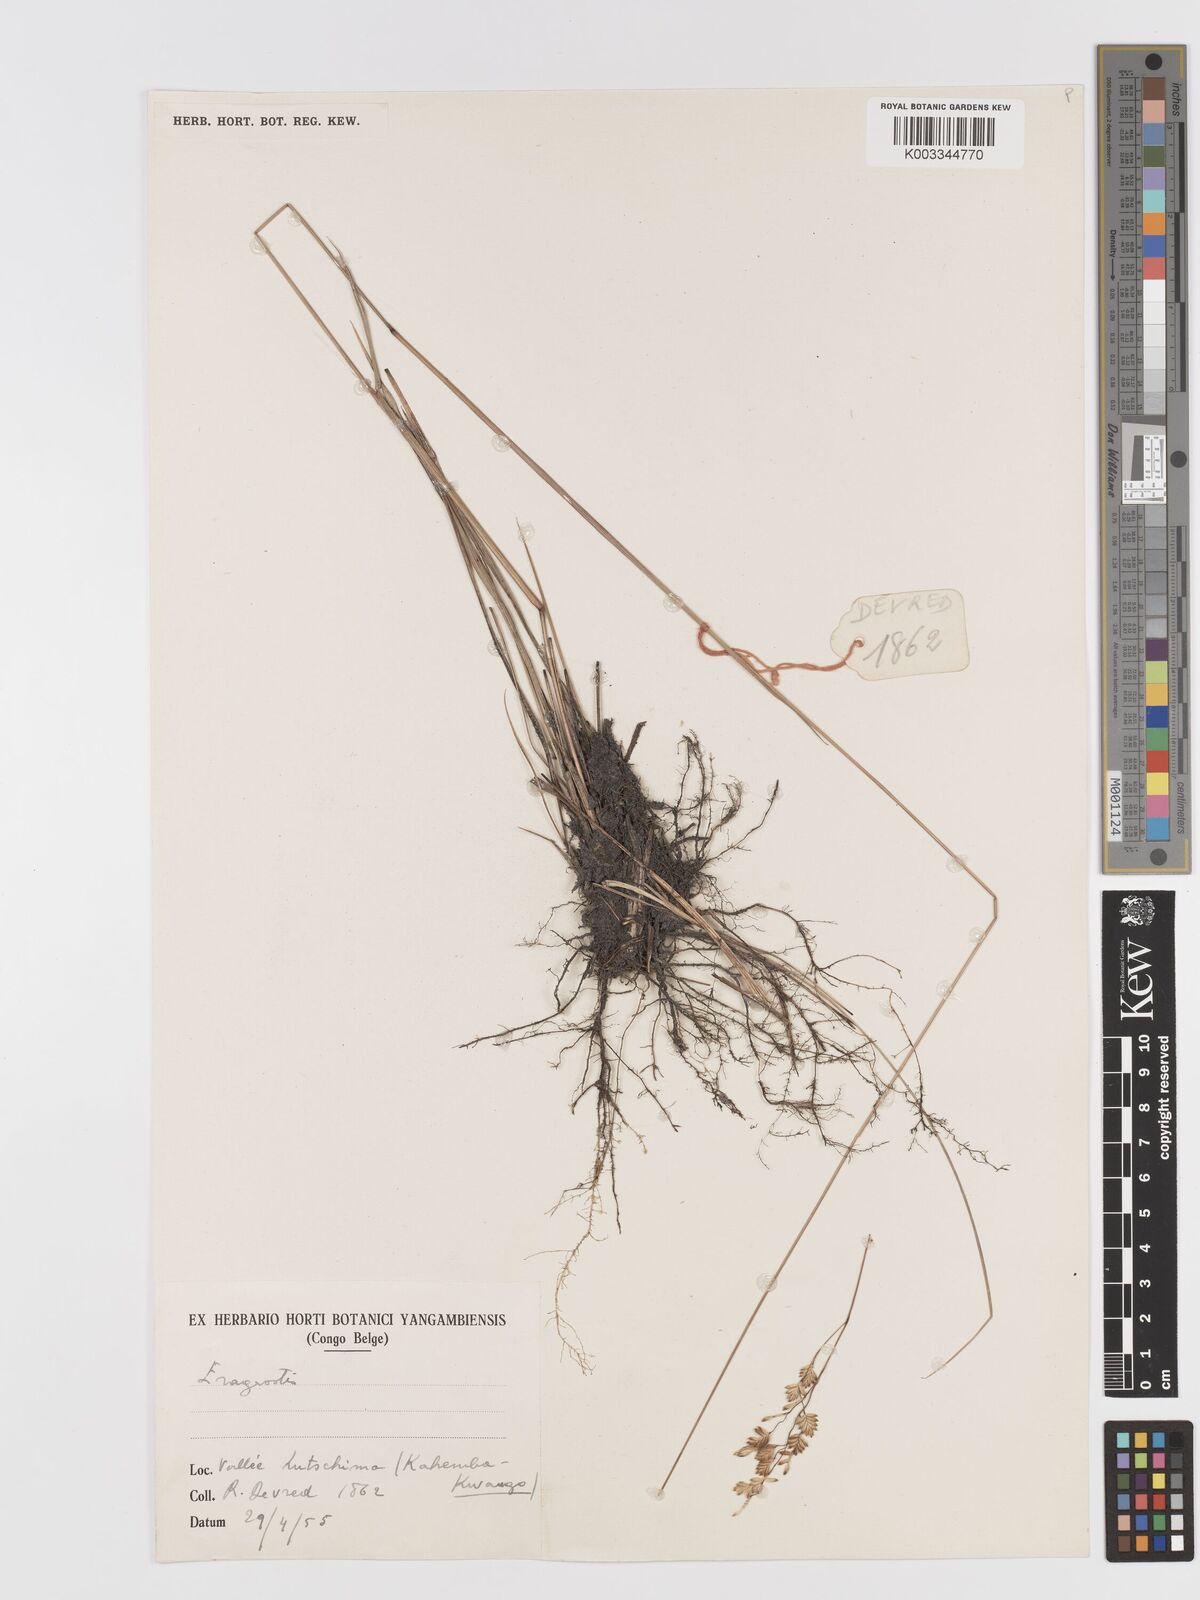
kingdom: Plantae
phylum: Tracheophyta
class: Liliopsida
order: Poales
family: Poaceae
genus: Eragrostis
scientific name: Eragrostis capensis
